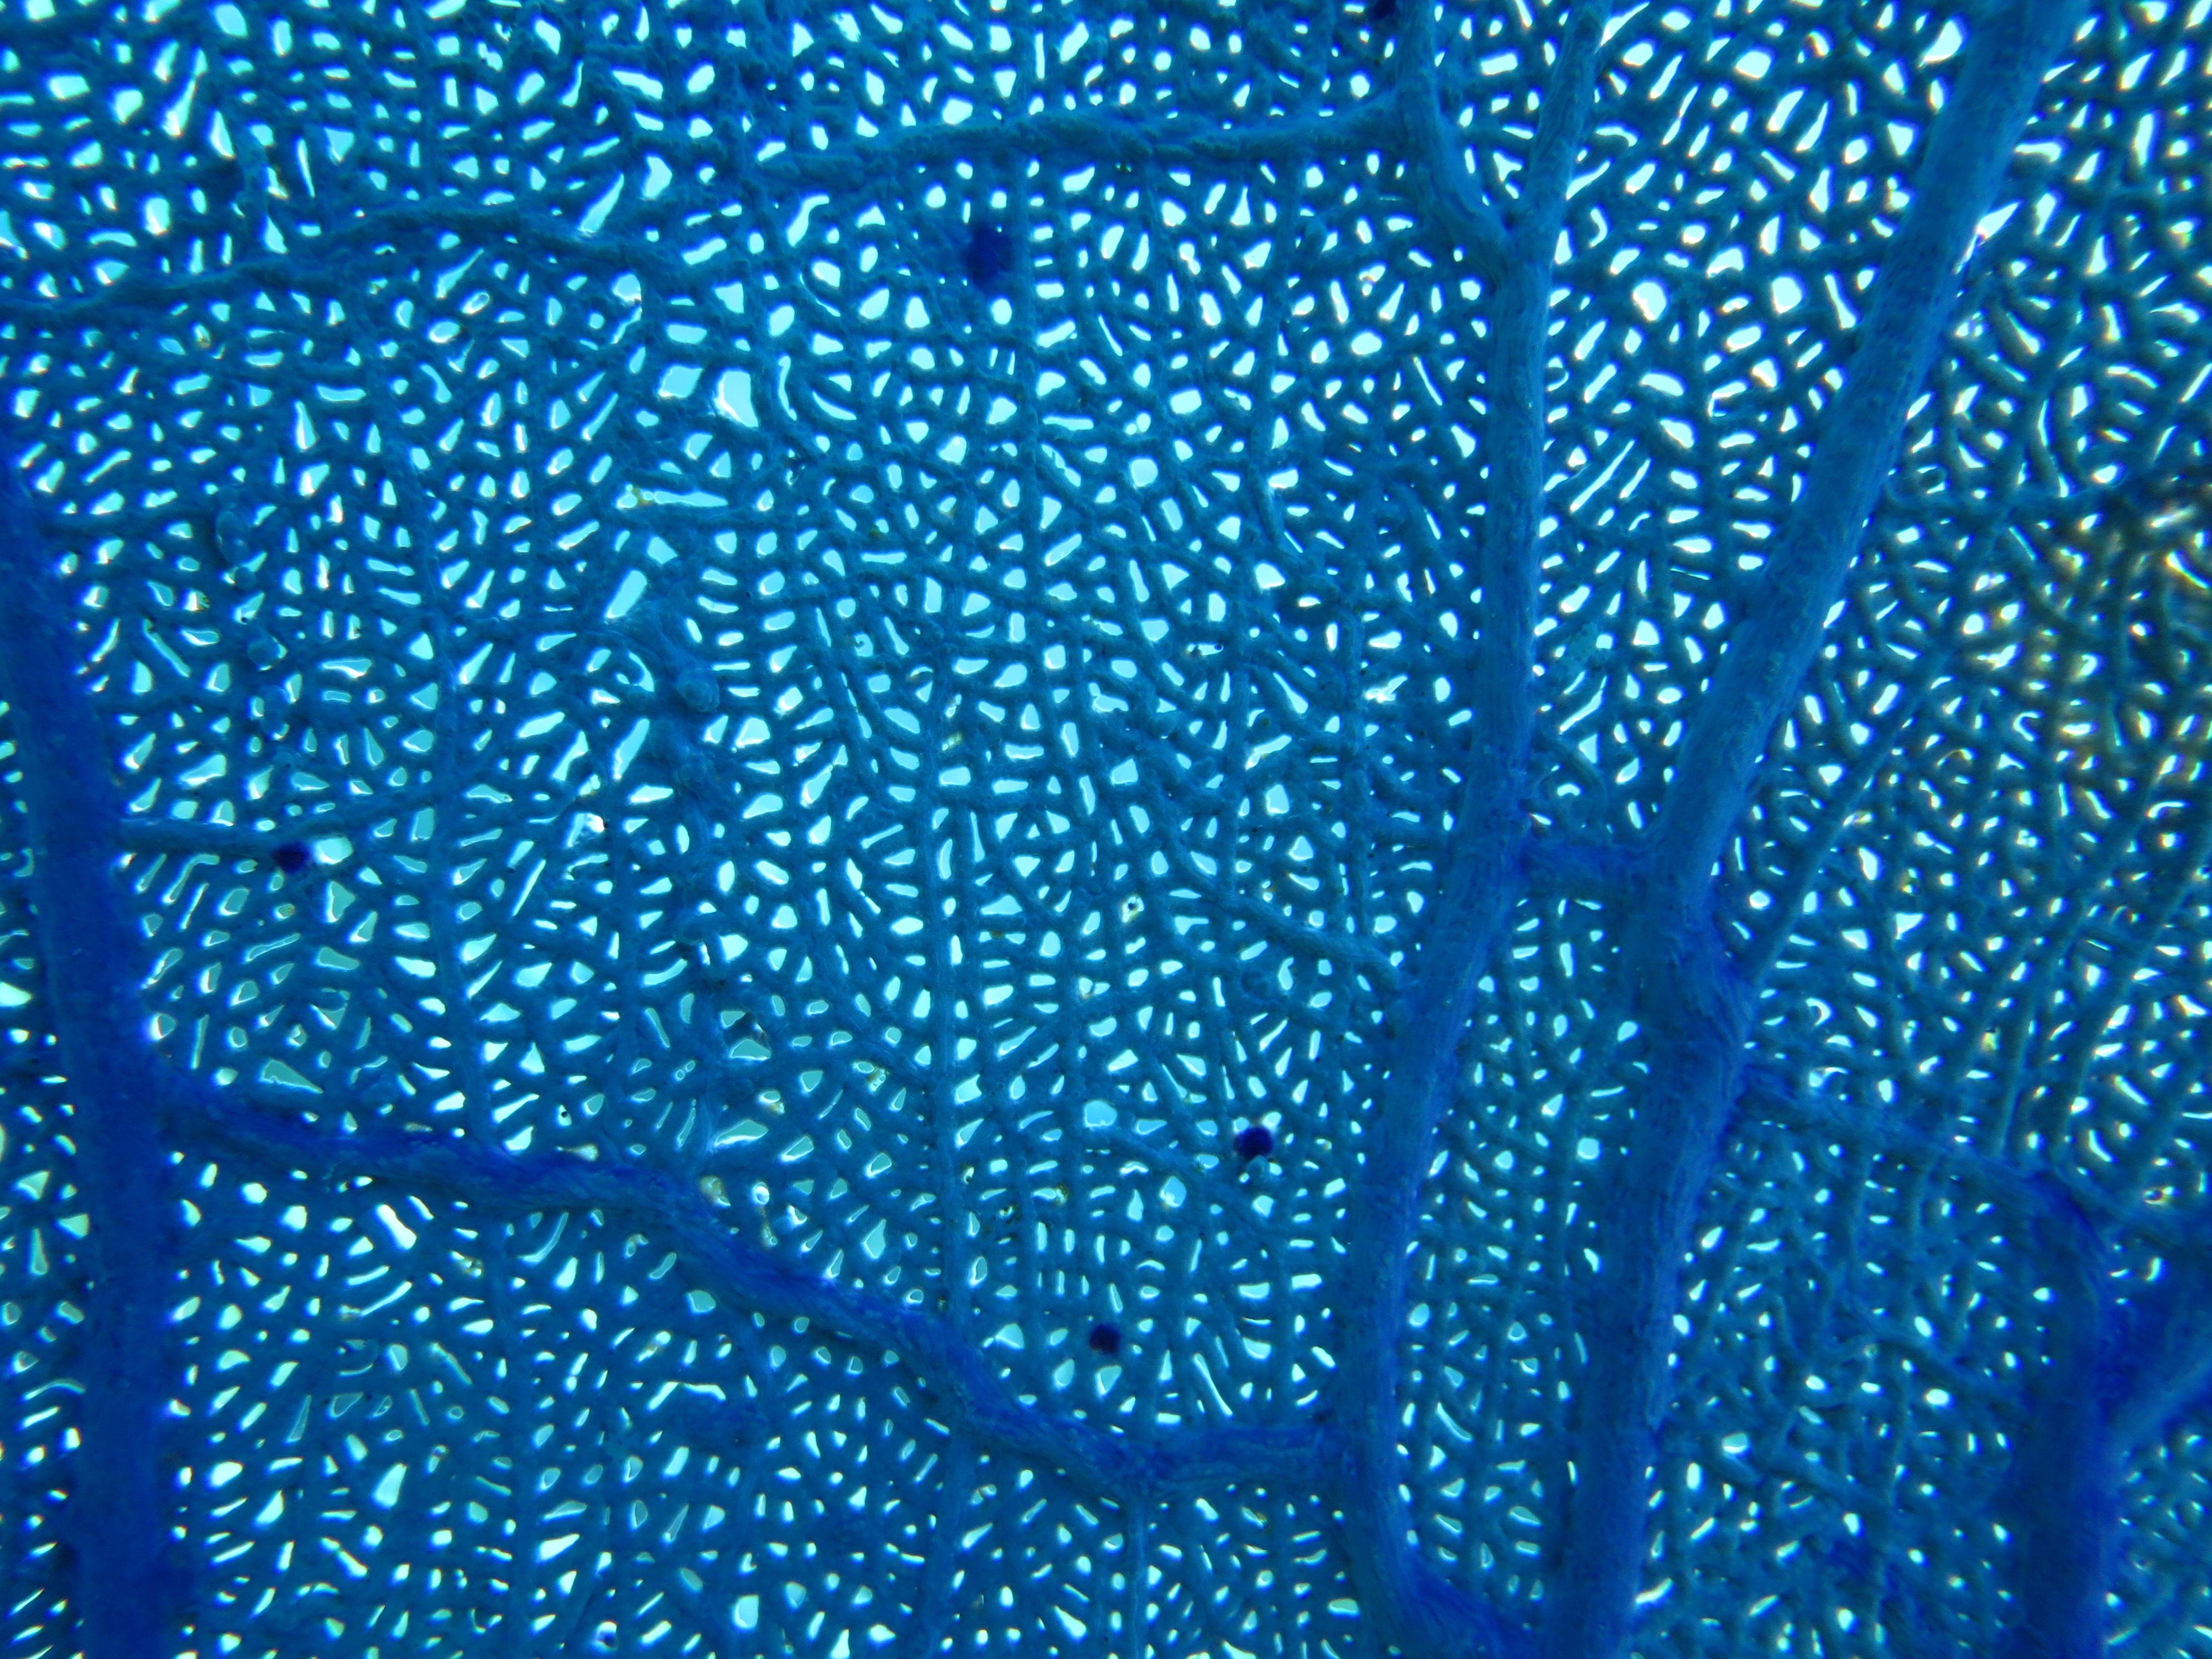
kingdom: Animalia
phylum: Cnidaria
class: Anthozoa
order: Malacalcyonacea
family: Gorgoniidae
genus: Gorgonia
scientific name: Gorgonia
